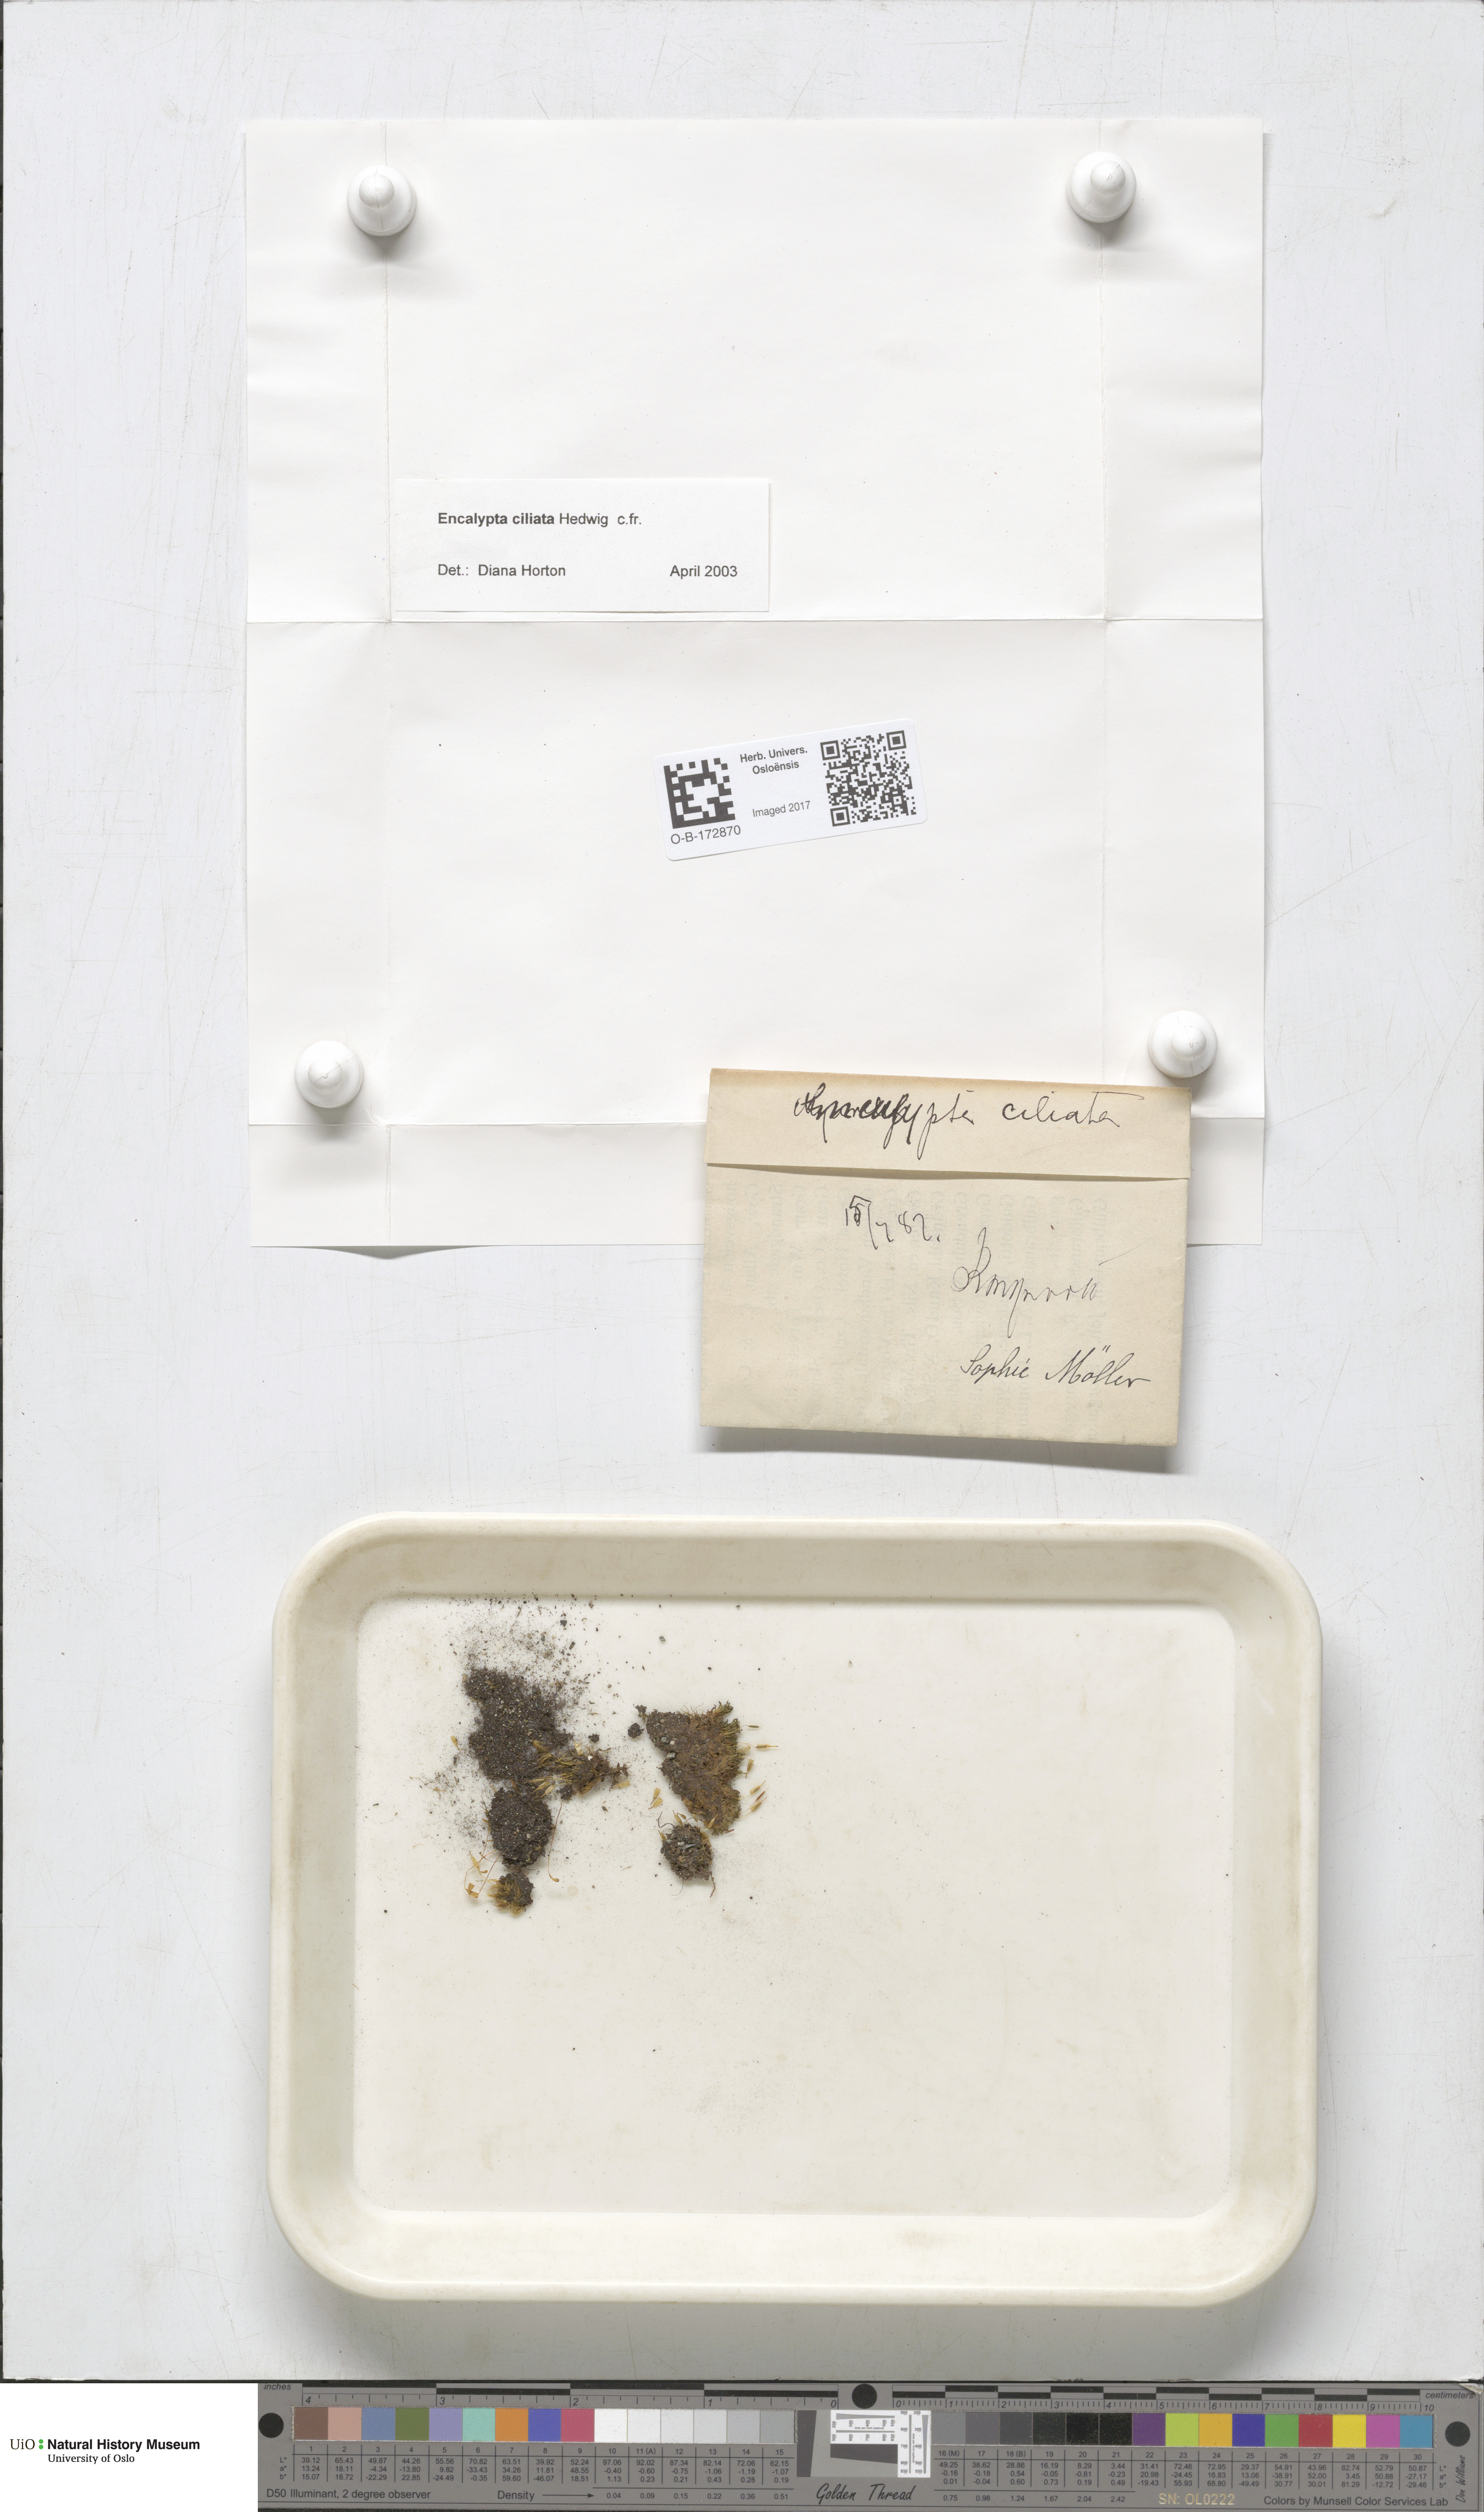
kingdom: Plantae
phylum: Bryophyta
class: Bryopsida
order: Encalyptales
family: Encalyptaceae
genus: Encalypta
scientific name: Encalypta ciliata
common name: Fringed extinguisher-moss
